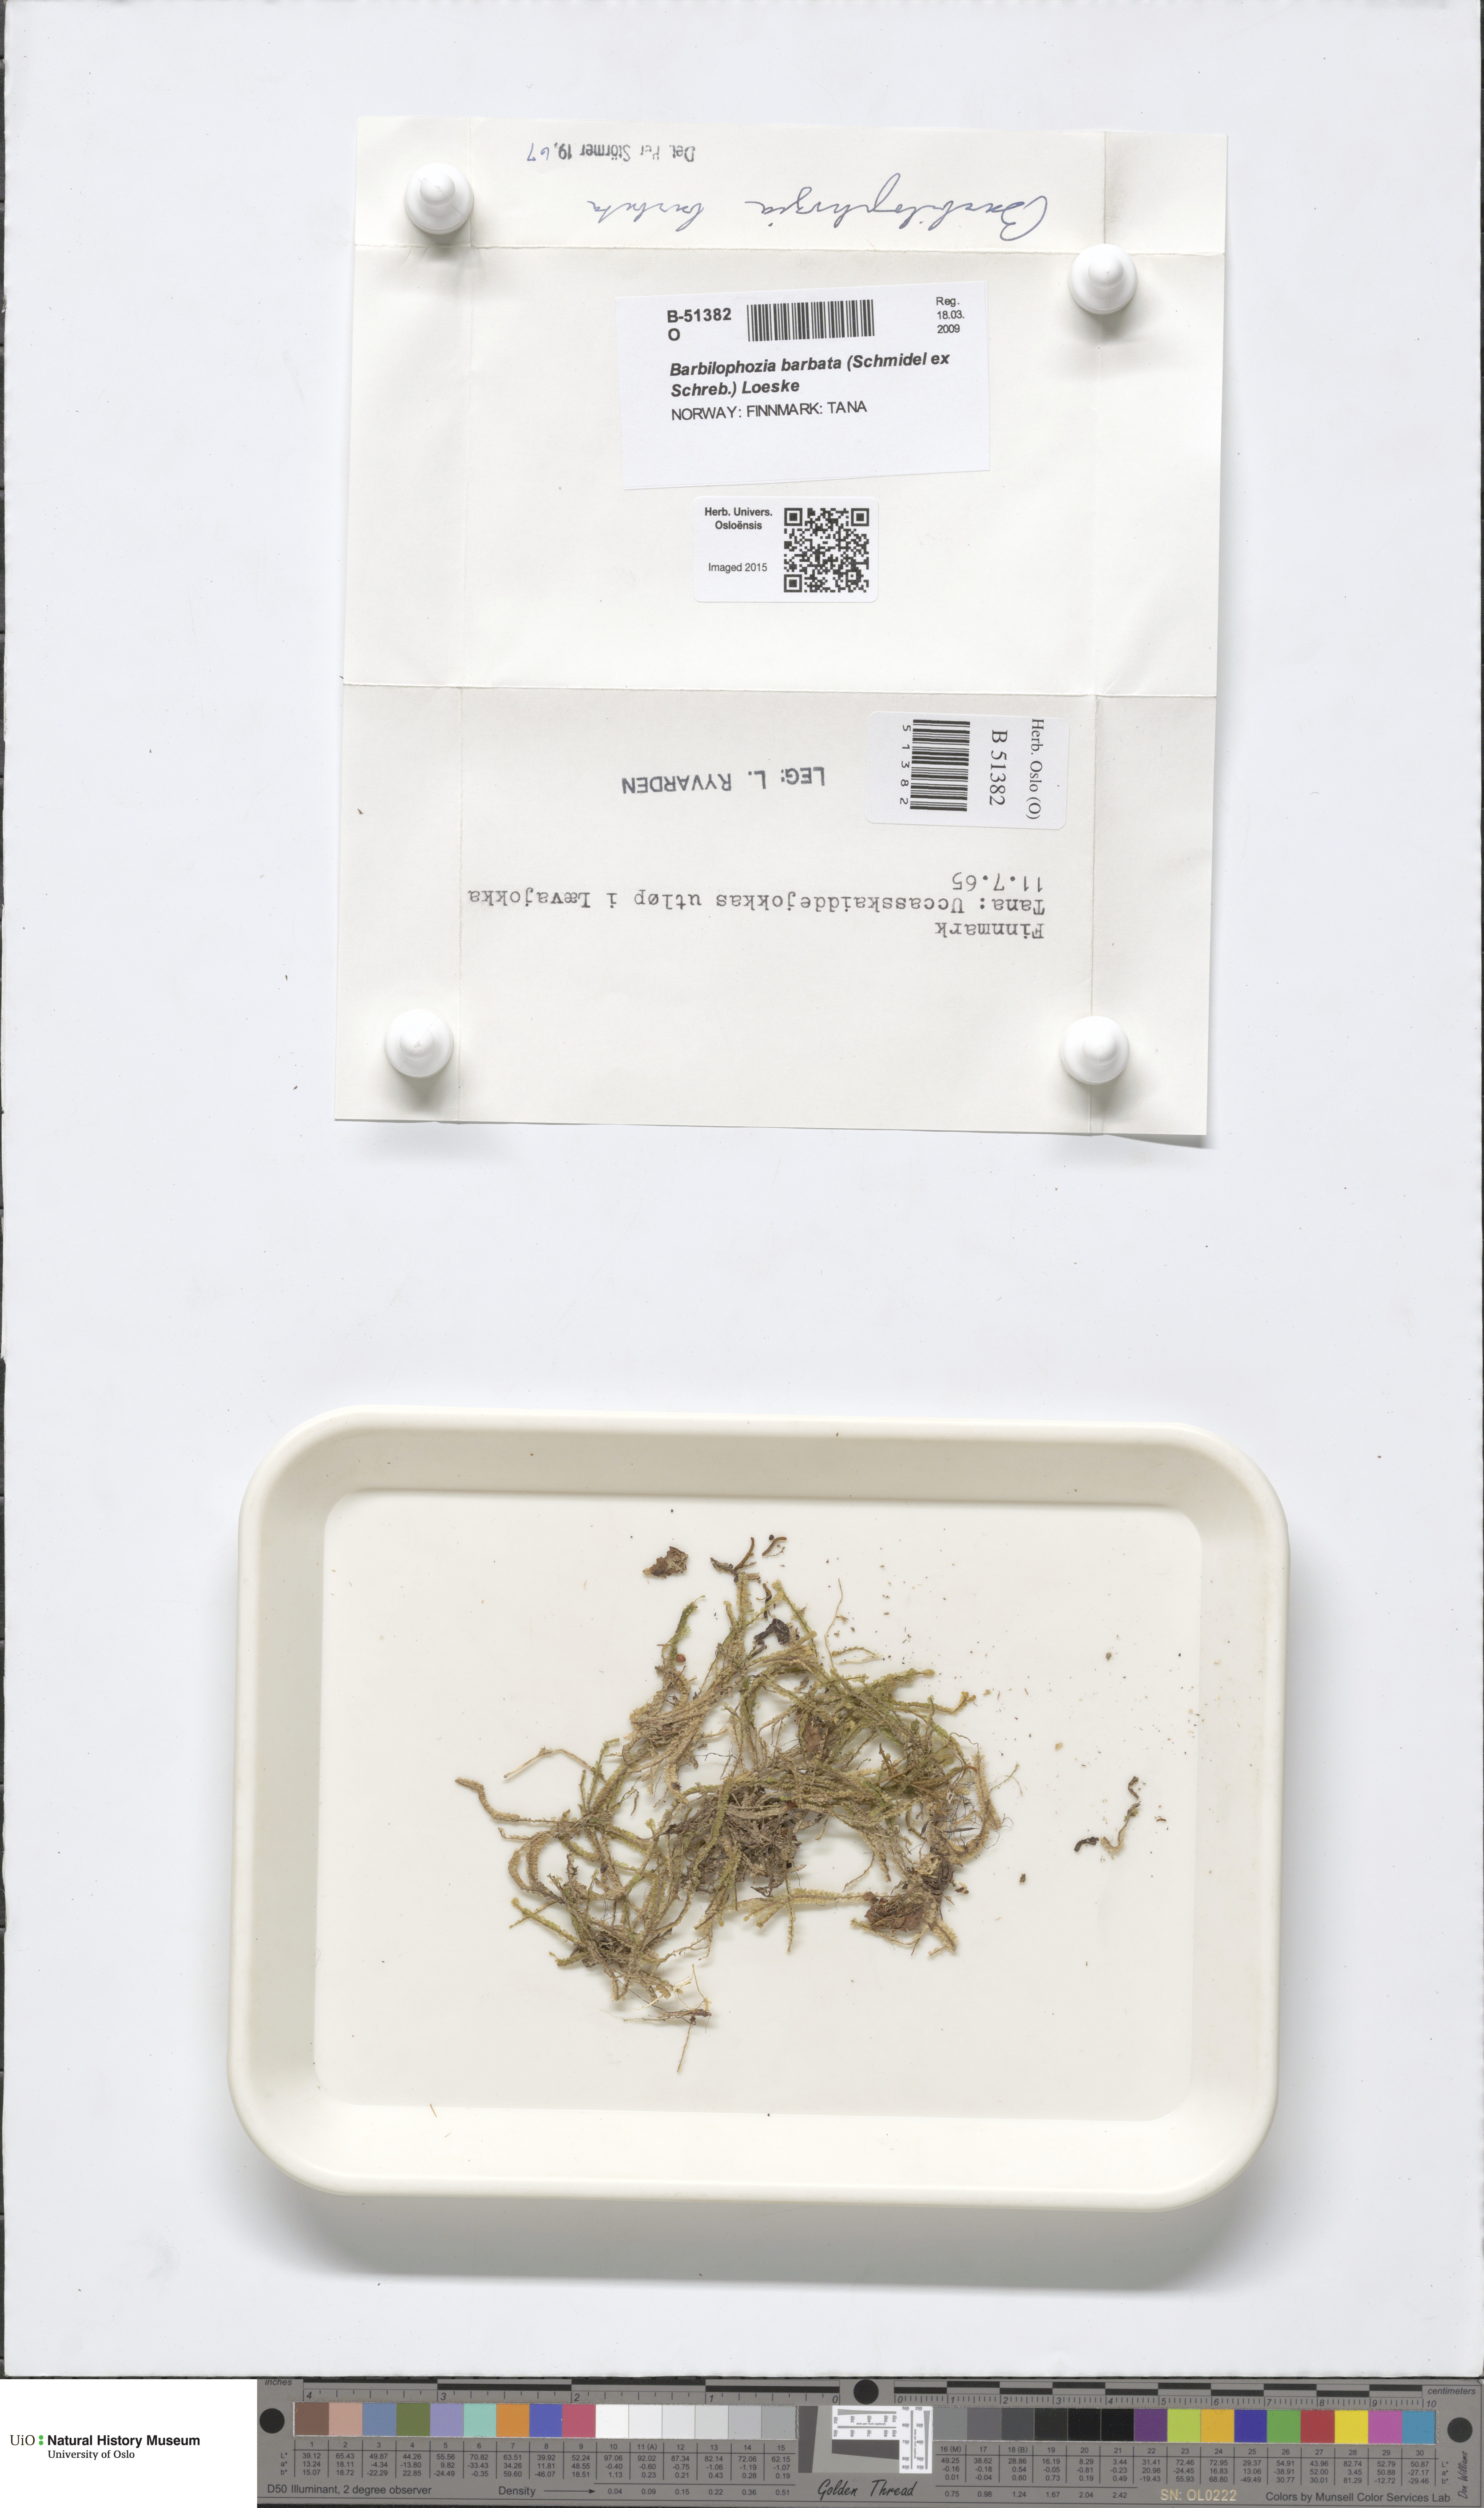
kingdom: Plantae
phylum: Marchantiophyta
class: Jungermanniopsida
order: Jungermanniales
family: Anastrophyllaceae
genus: Barbilophozia
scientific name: Barbilophozia barbata
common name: Bearded pawwort
